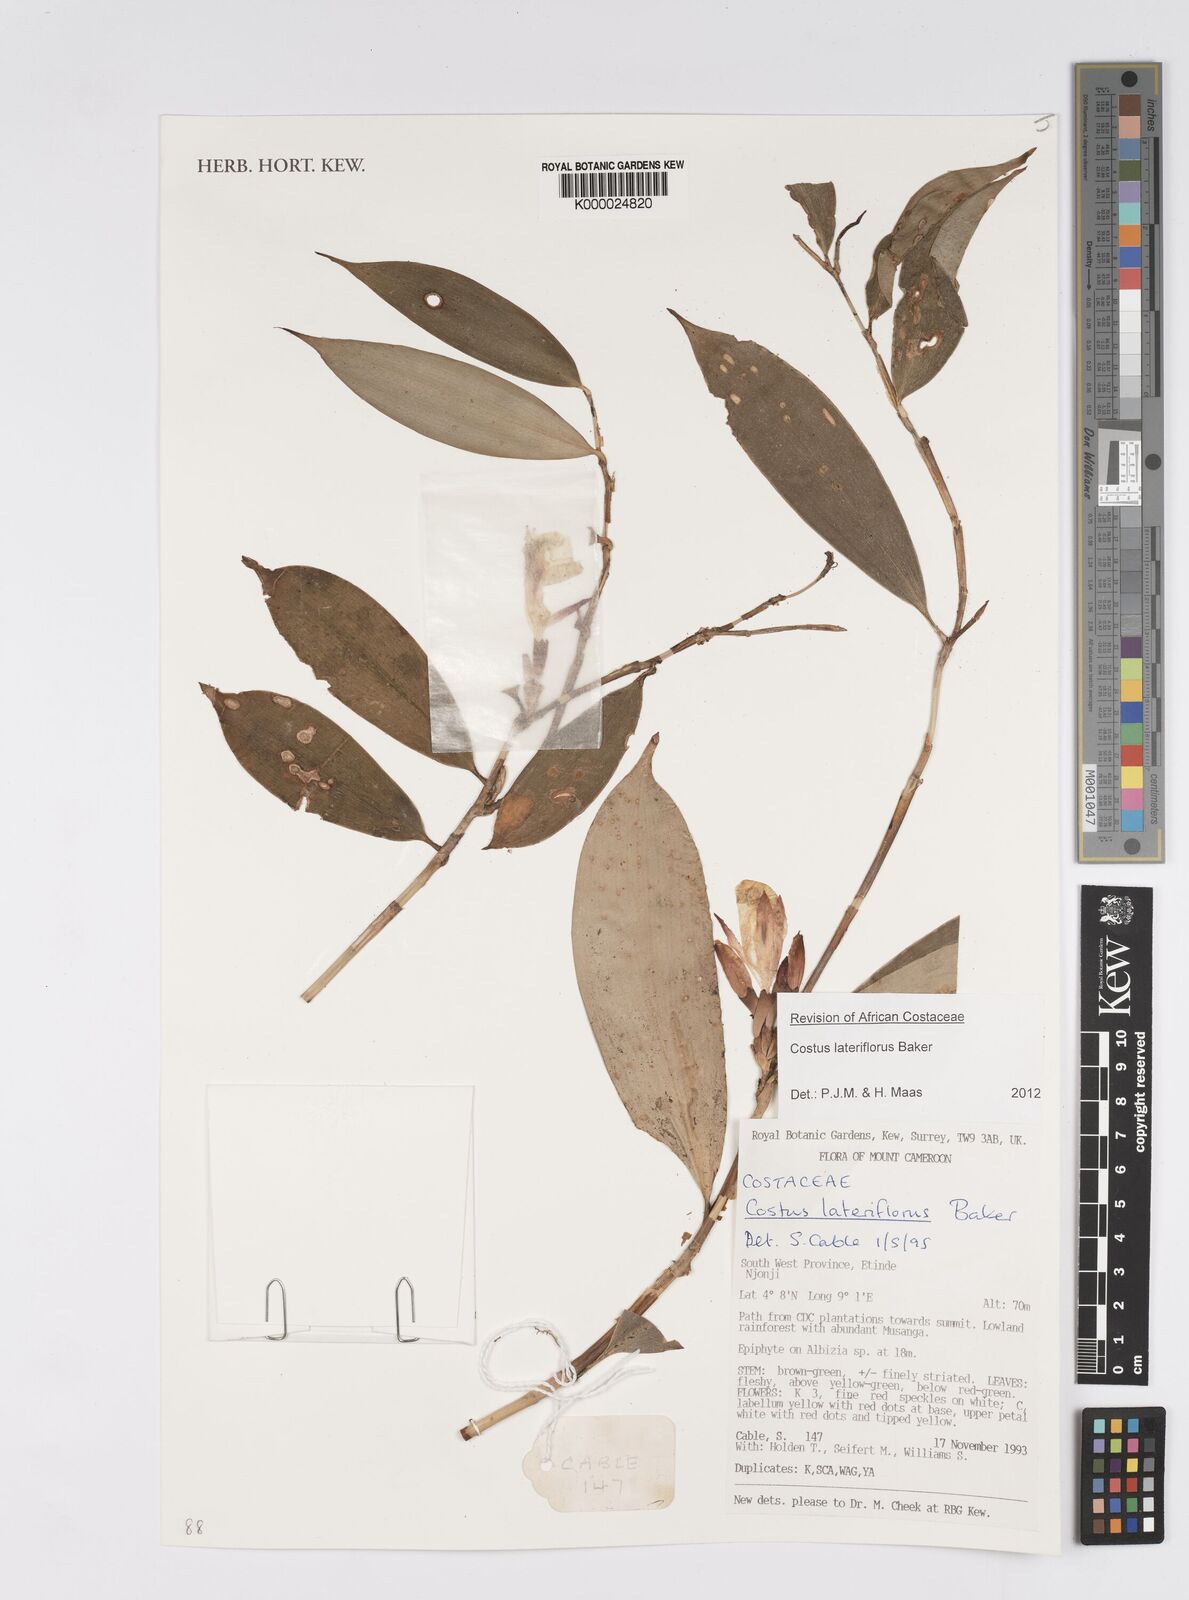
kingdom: Plantae
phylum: Tracheophyta
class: Liliopsida
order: Asparagales
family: Orchidaceae
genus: Polystachya
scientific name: Polystachya concreta
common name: Greater yellowspike orchid
